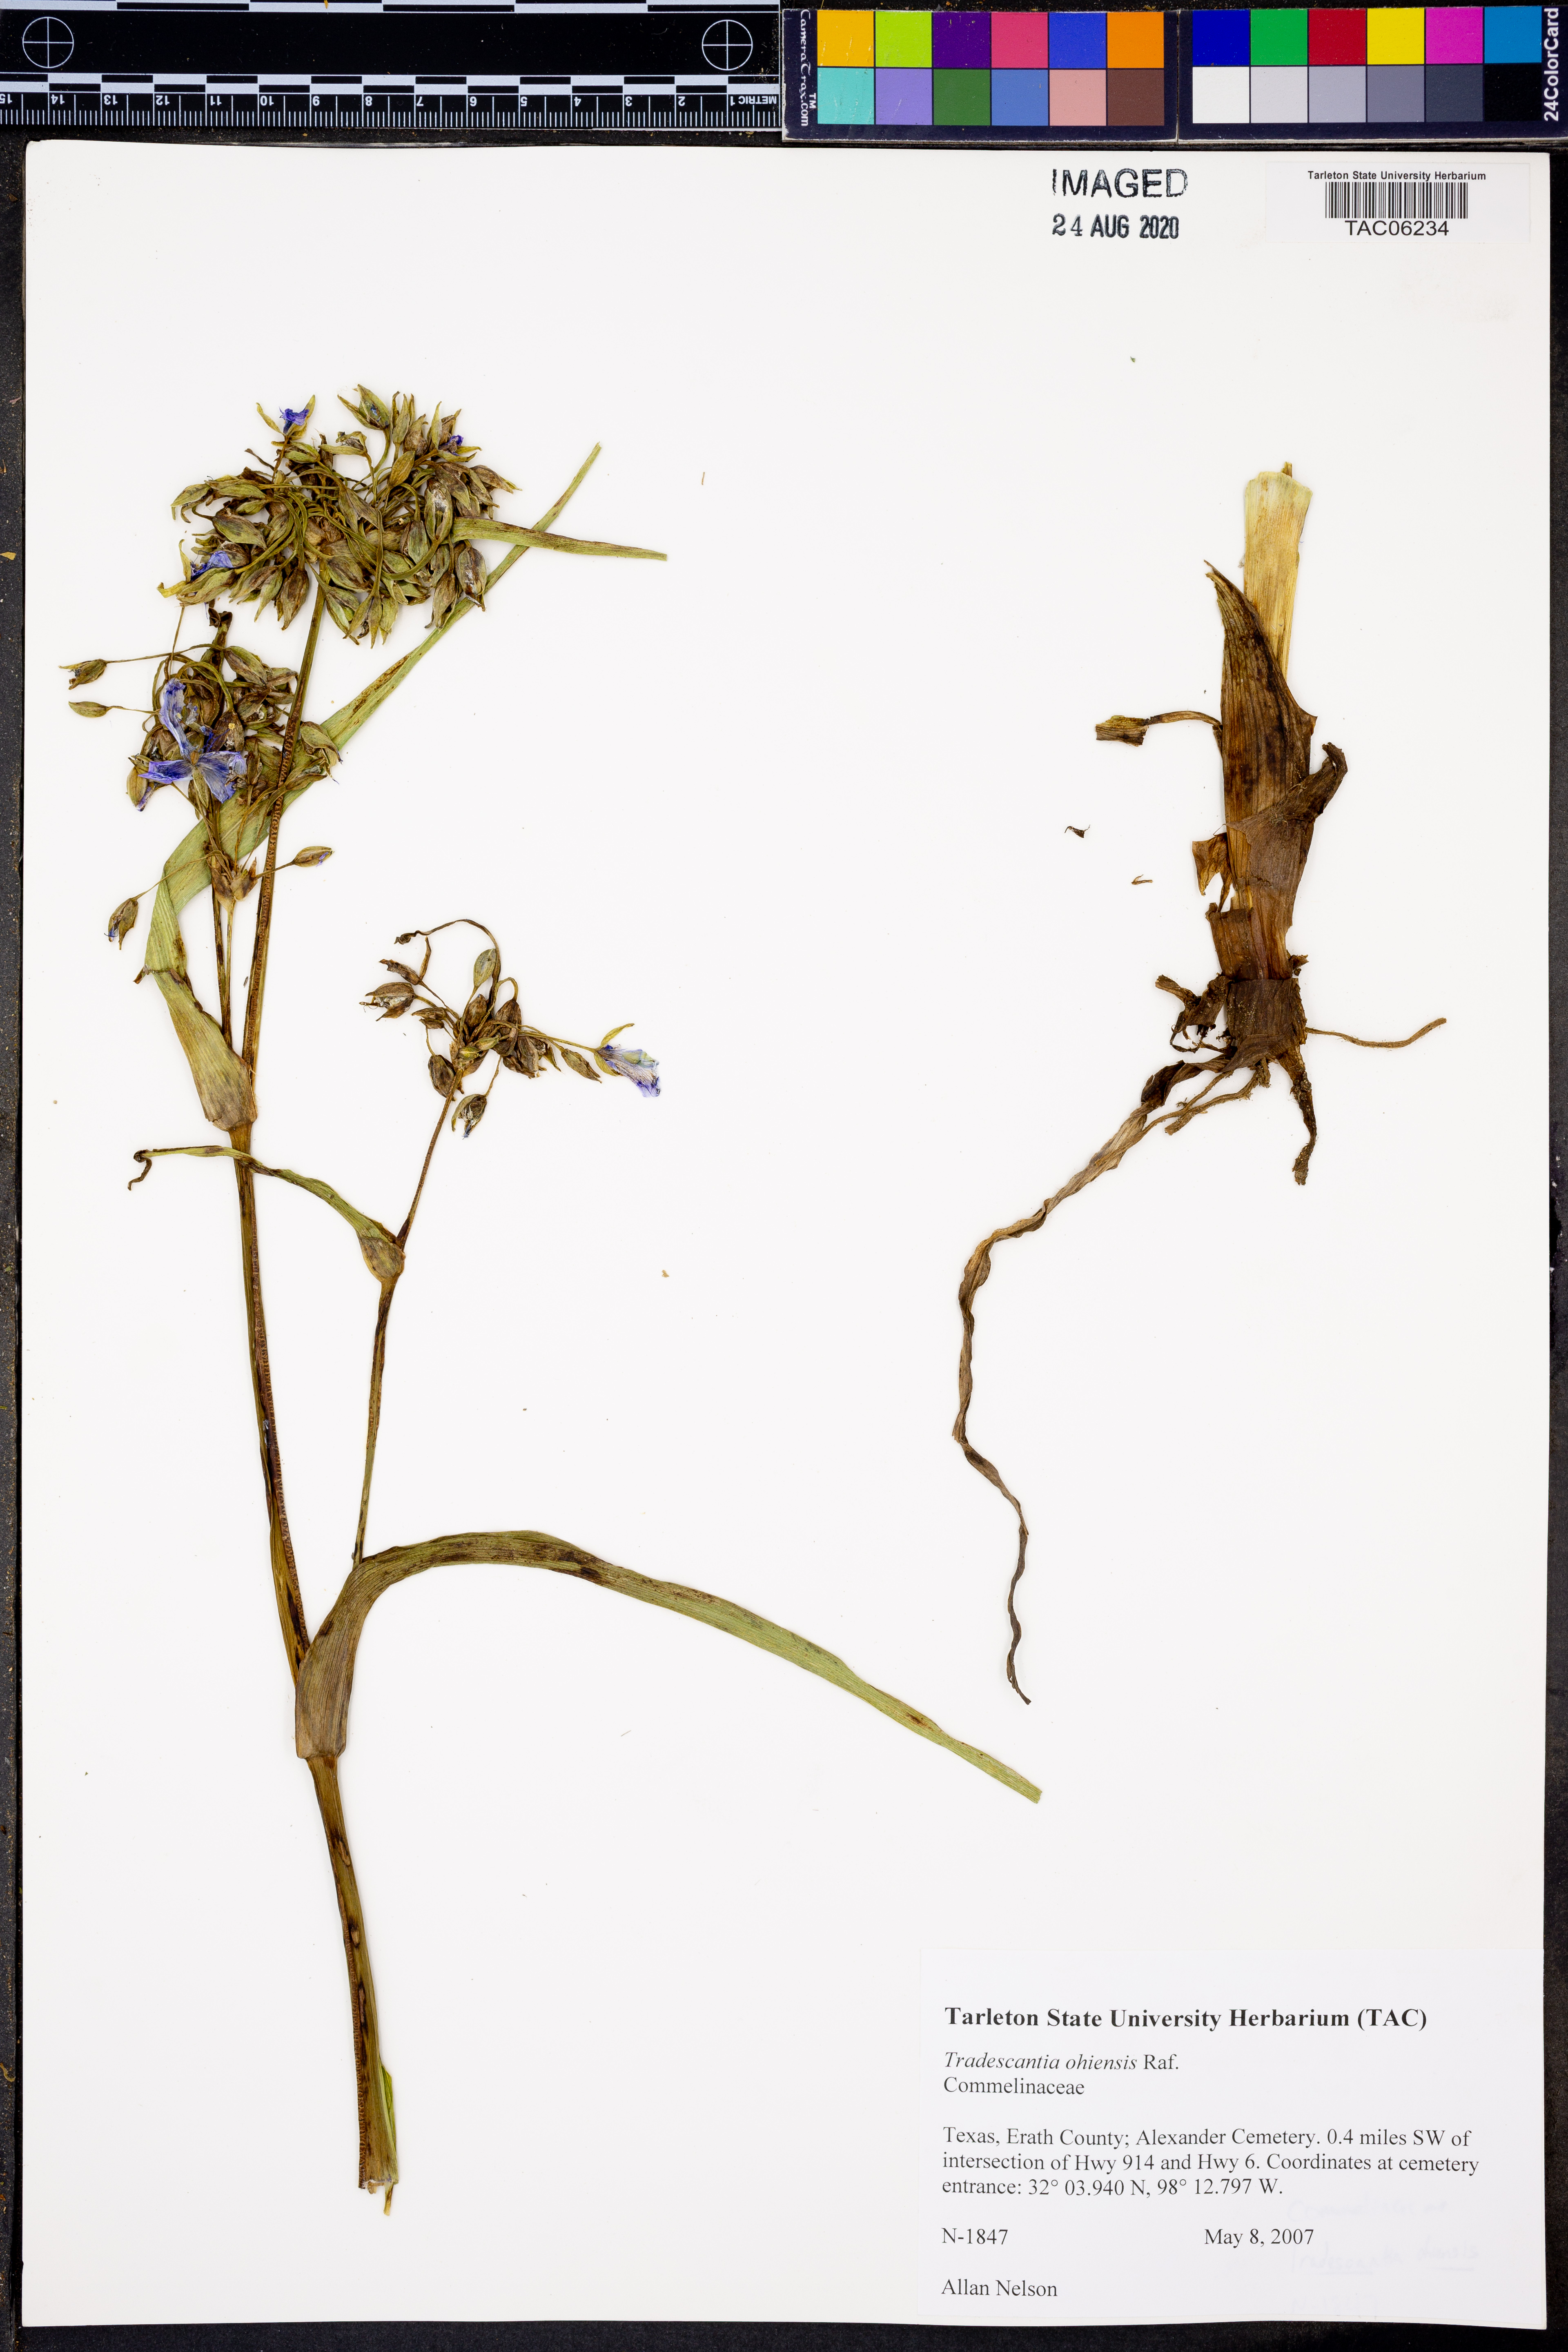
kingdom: Plantae
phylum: Tracheophyta
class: Liliopsida
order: Commelinales
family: Commelinaceae
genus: Tradescantia
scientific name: Tradescantia ohiensis
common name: Ohio spiderwort
